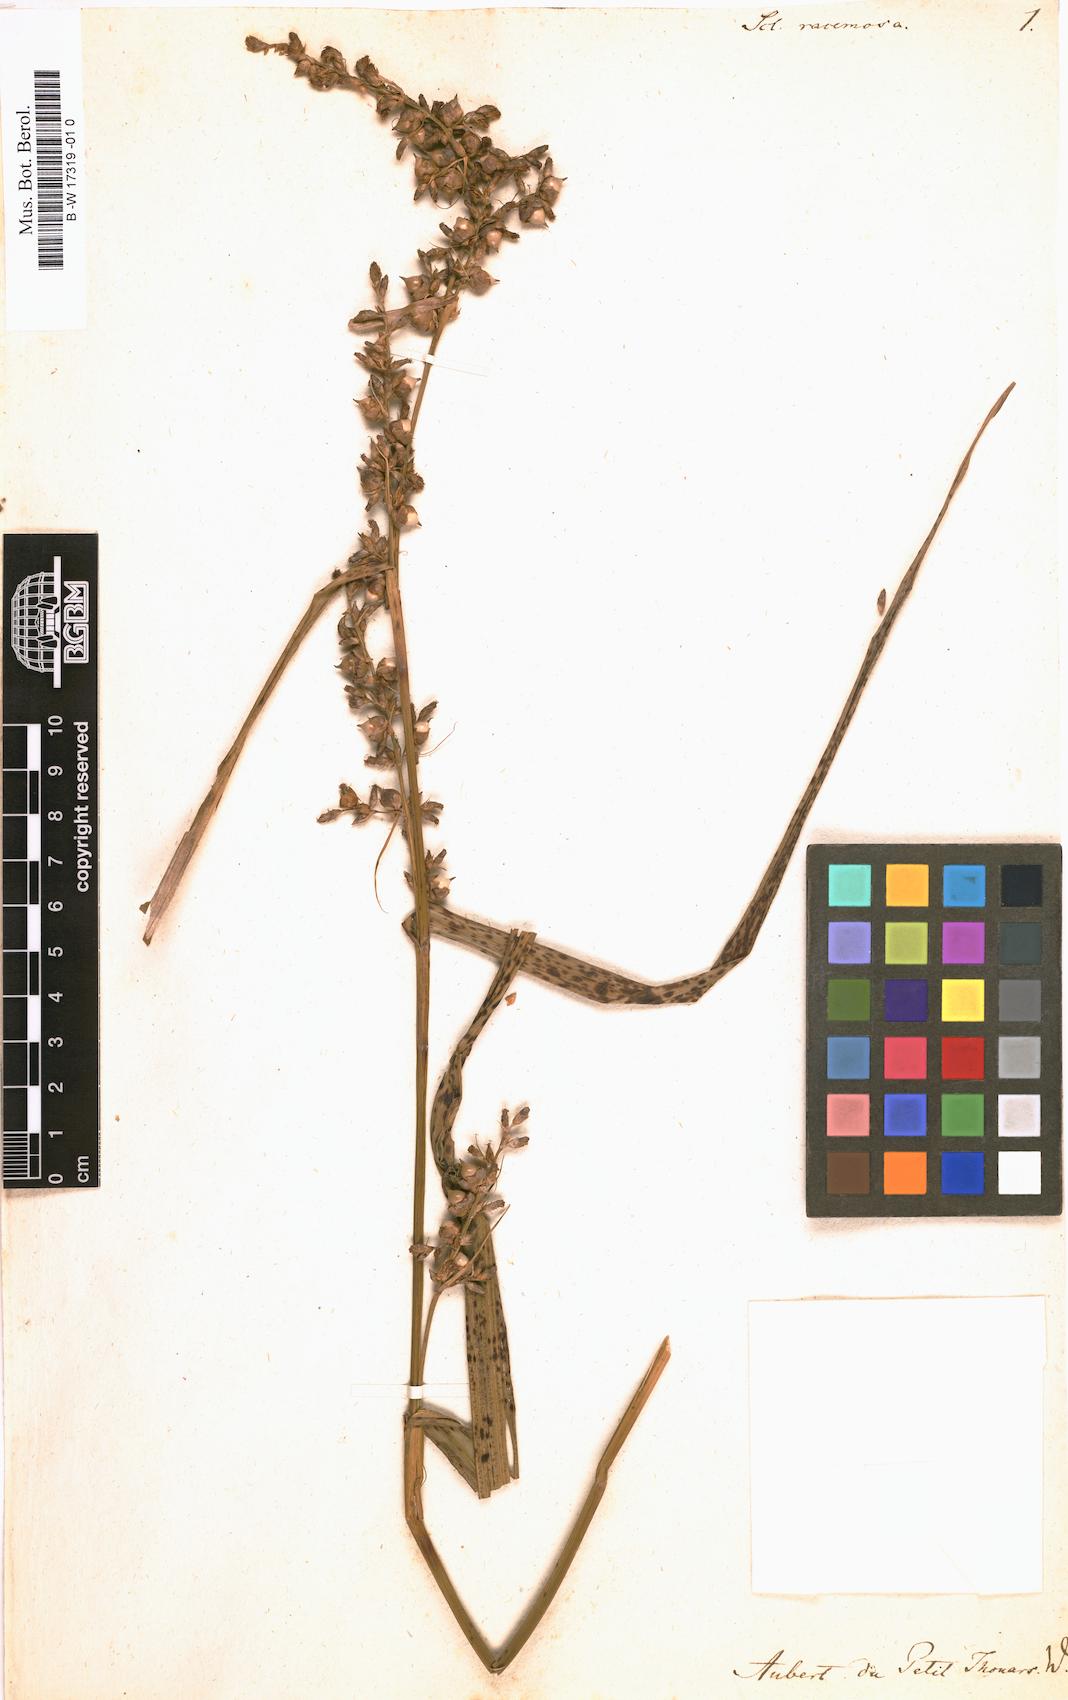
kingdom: Plantae
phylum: Tracheophyta
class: Liliopsida
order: Poales
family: Cyperaceae
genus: Scleria
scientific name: Scleria racemosa
